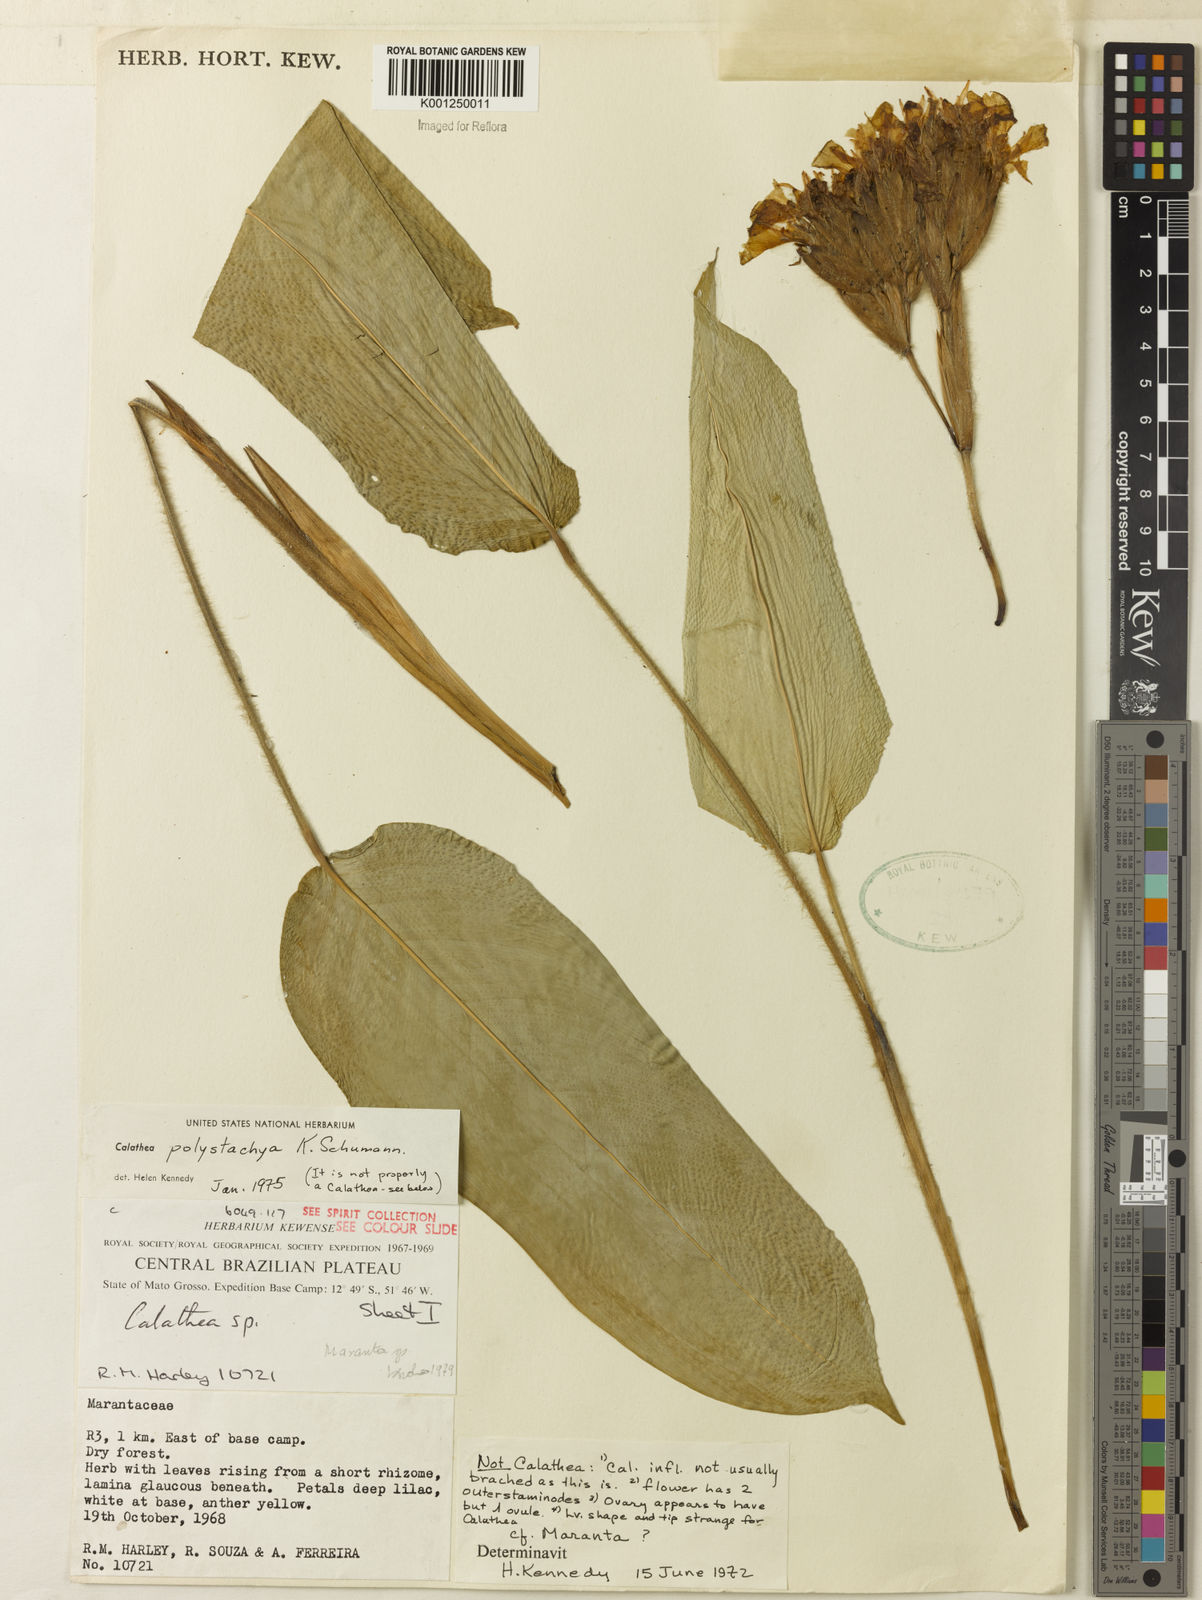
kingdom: Plantae
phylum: Tracheophyta
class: Liliopsida
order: Zingiberales
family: Marantaceae
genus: Ischnosiphon
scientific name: Ischnosiphon polyphyllus
